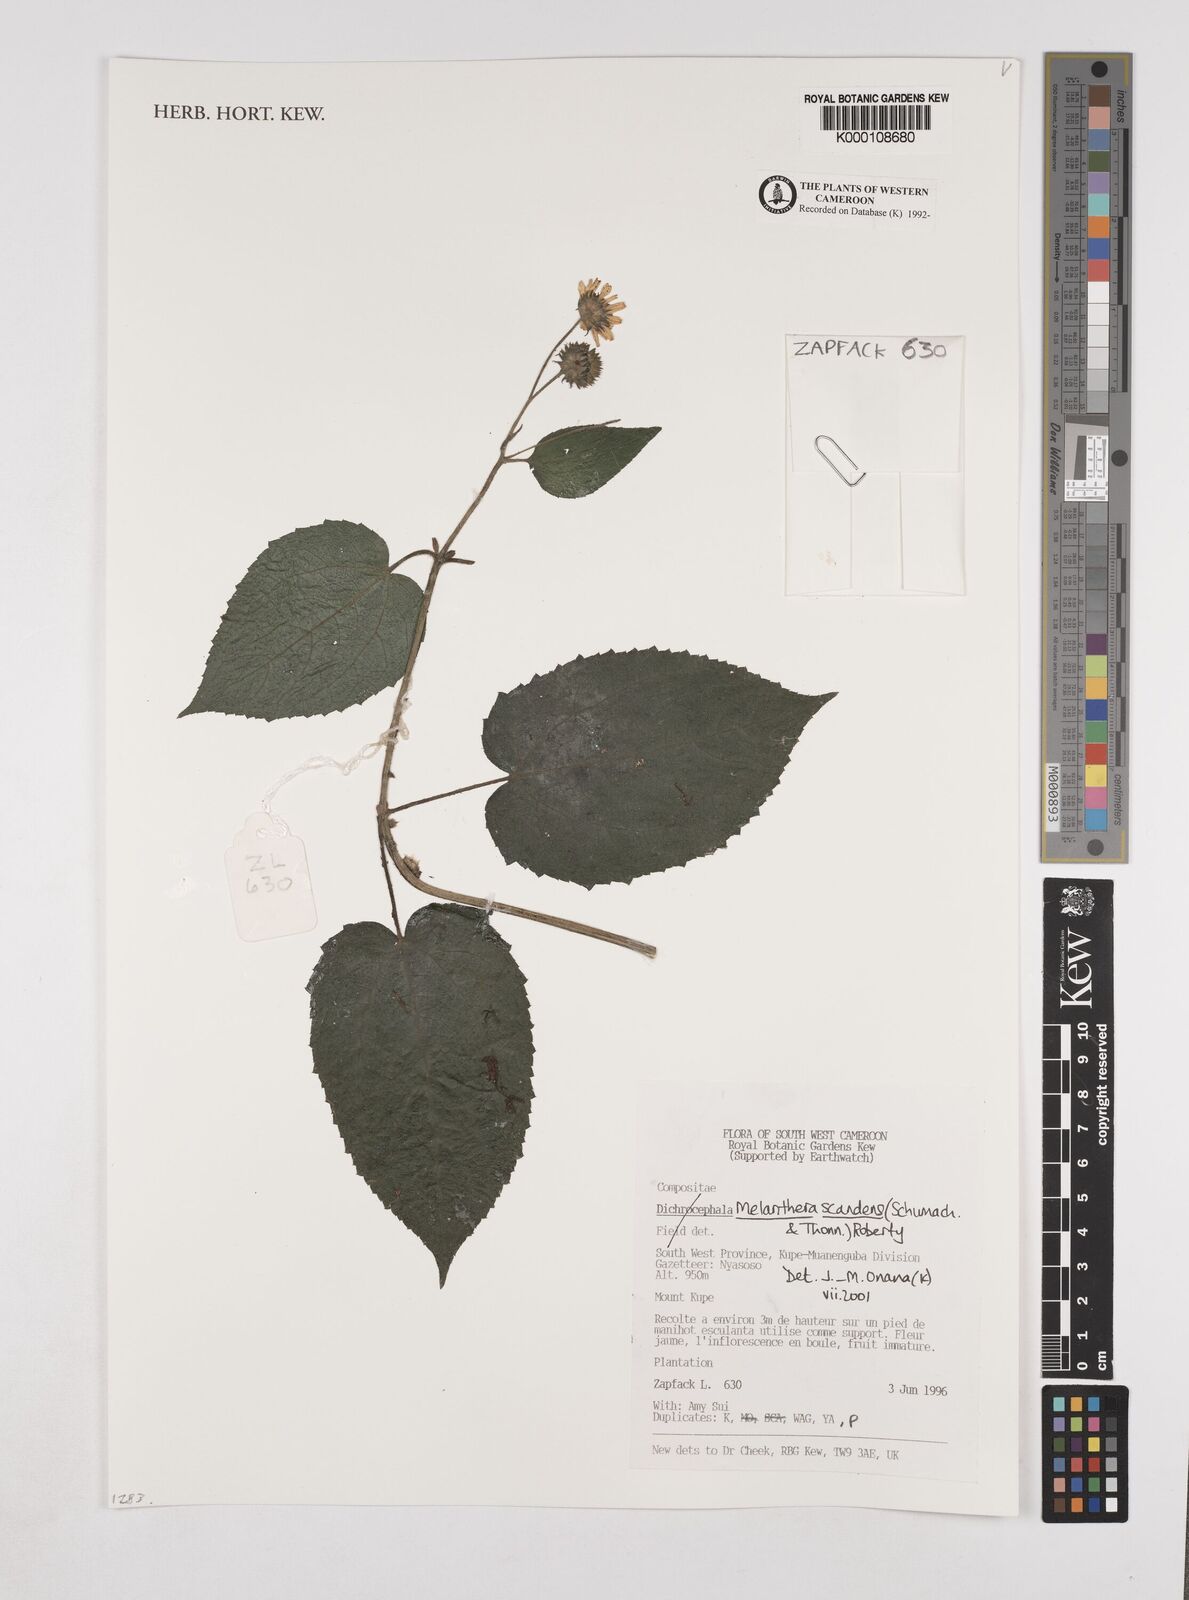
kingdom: Plantae
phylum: Tracheophyta
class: Magnoliopsida
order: Asterales
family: Asteraceae
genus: Melanthera
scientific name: Melanthera
